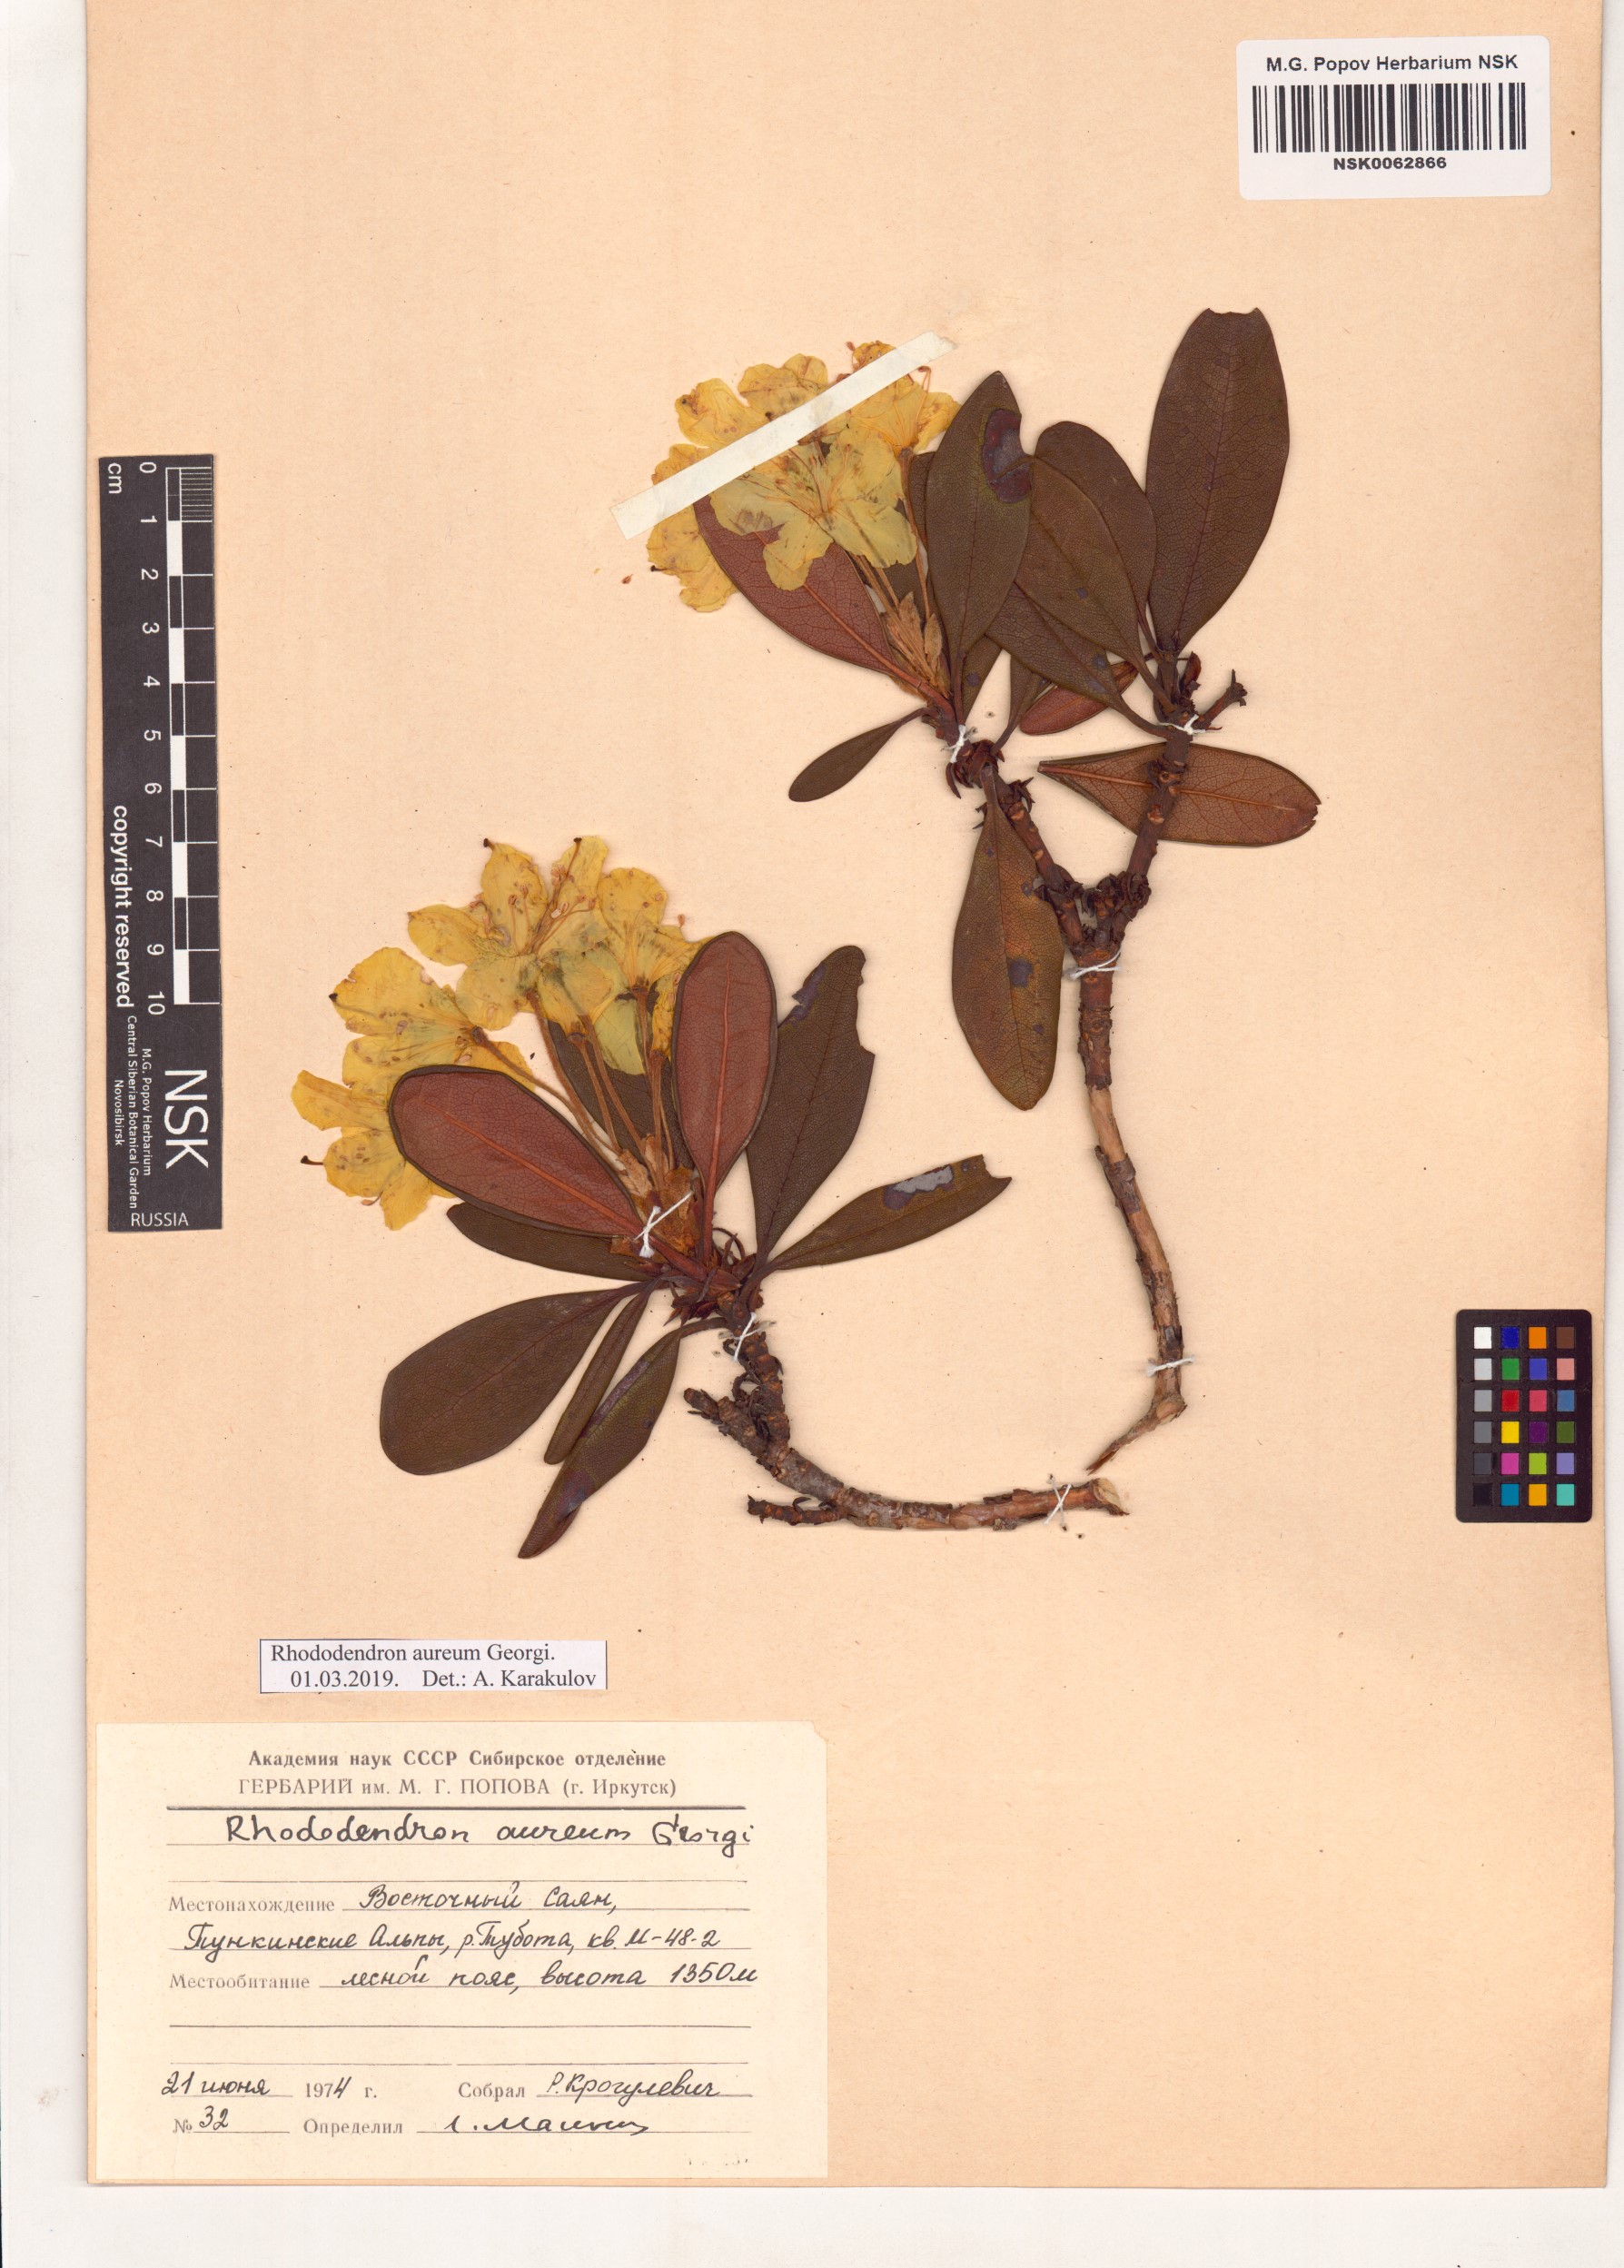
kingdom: Plantae
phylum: Tracheophyta
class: Magnoliopsida
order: Ericales
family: Ericaceae
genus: Rhododendron
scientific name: Rhododendron aureum
